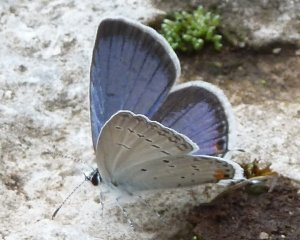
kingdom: Animalia
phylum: Arthropoda
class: Insecta
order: Lepidoptera
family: Lycaenidae
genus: Elkalyce
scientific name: Elkalyce comyntas
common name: Eastern Tailed-Blue
